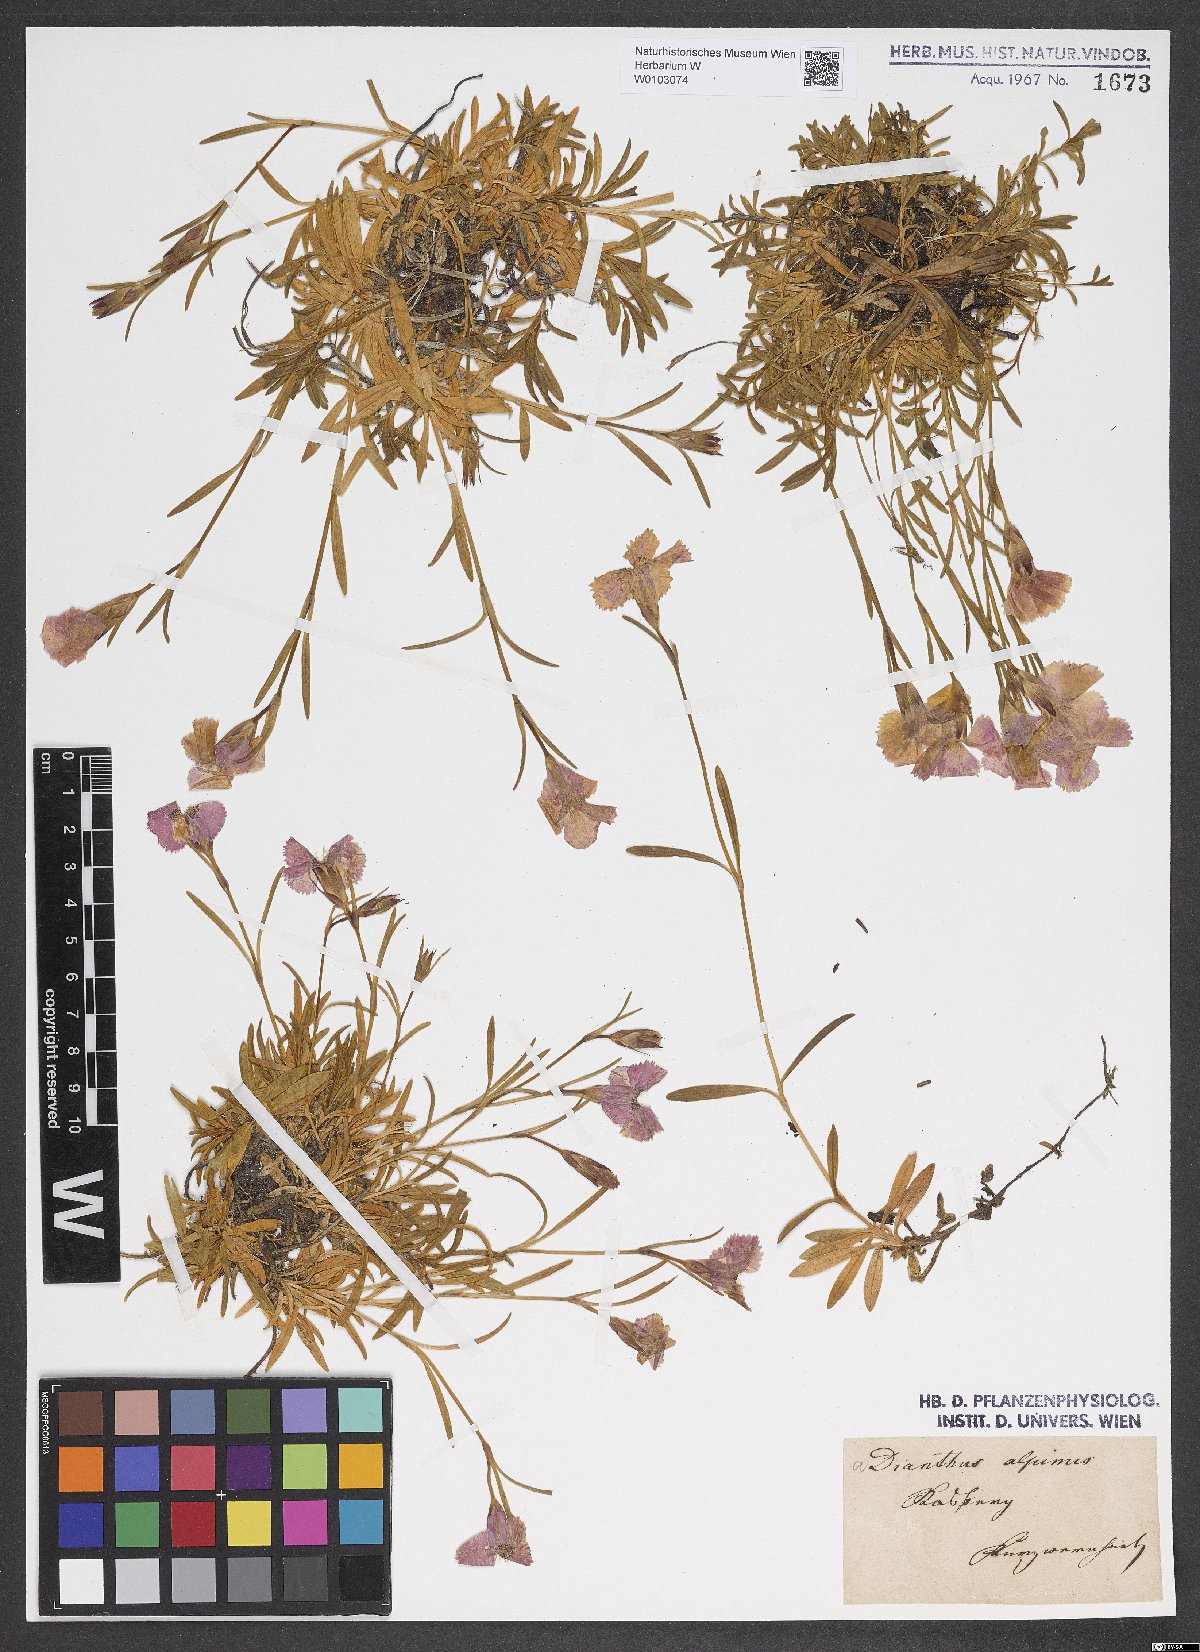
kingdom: Plantae
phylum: Tracheophyta
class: Magnoliopsida
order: Caryophyllales
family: Caryophyllaceae
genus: Dianthus
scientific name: Dianthus alpinus
